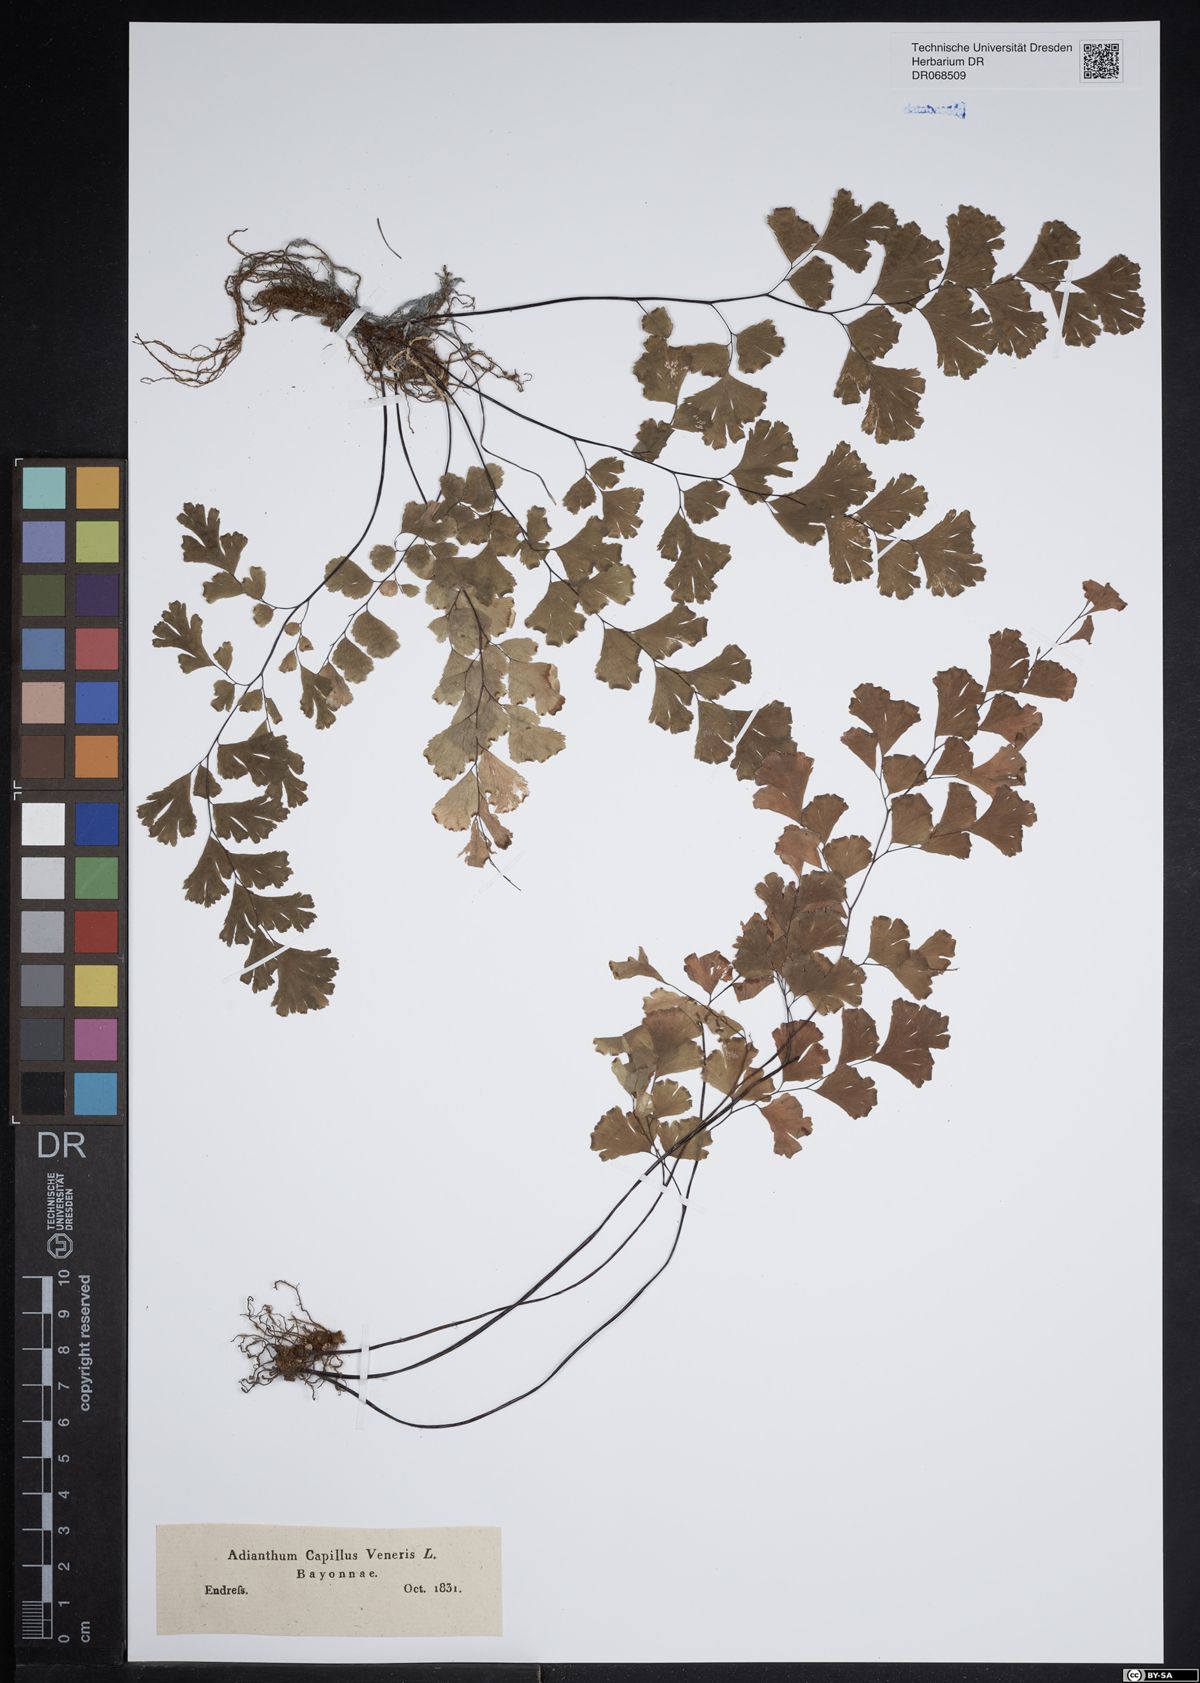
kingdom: Plantae
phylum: Tracheophyta
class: Polypodiopsida
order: Polypodiales
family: Pteridaceae
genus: Adiantum
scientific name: Adiantum capillus-veneris
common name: Maidenhair fern
